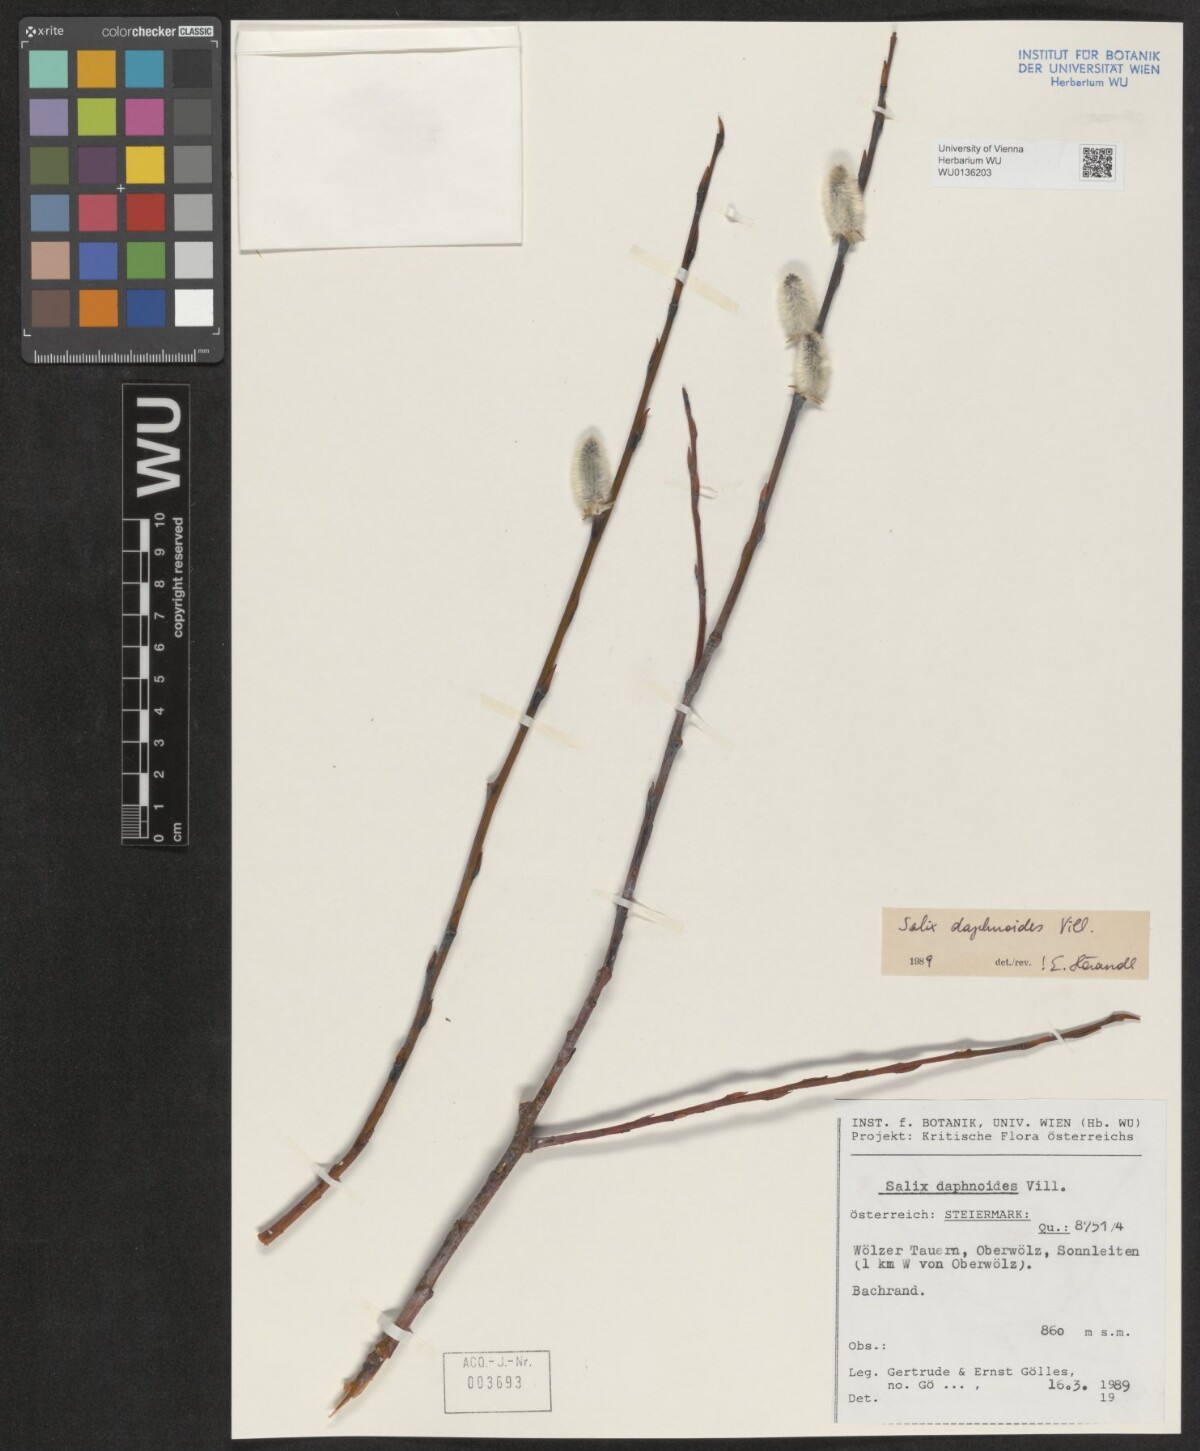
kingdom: Plantae
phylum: Tracheophyta
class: Magnoliopsida
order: Malpighiales
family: Salicaceae
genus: Salix
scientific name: Salix daphnoides
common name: European violet-willow
